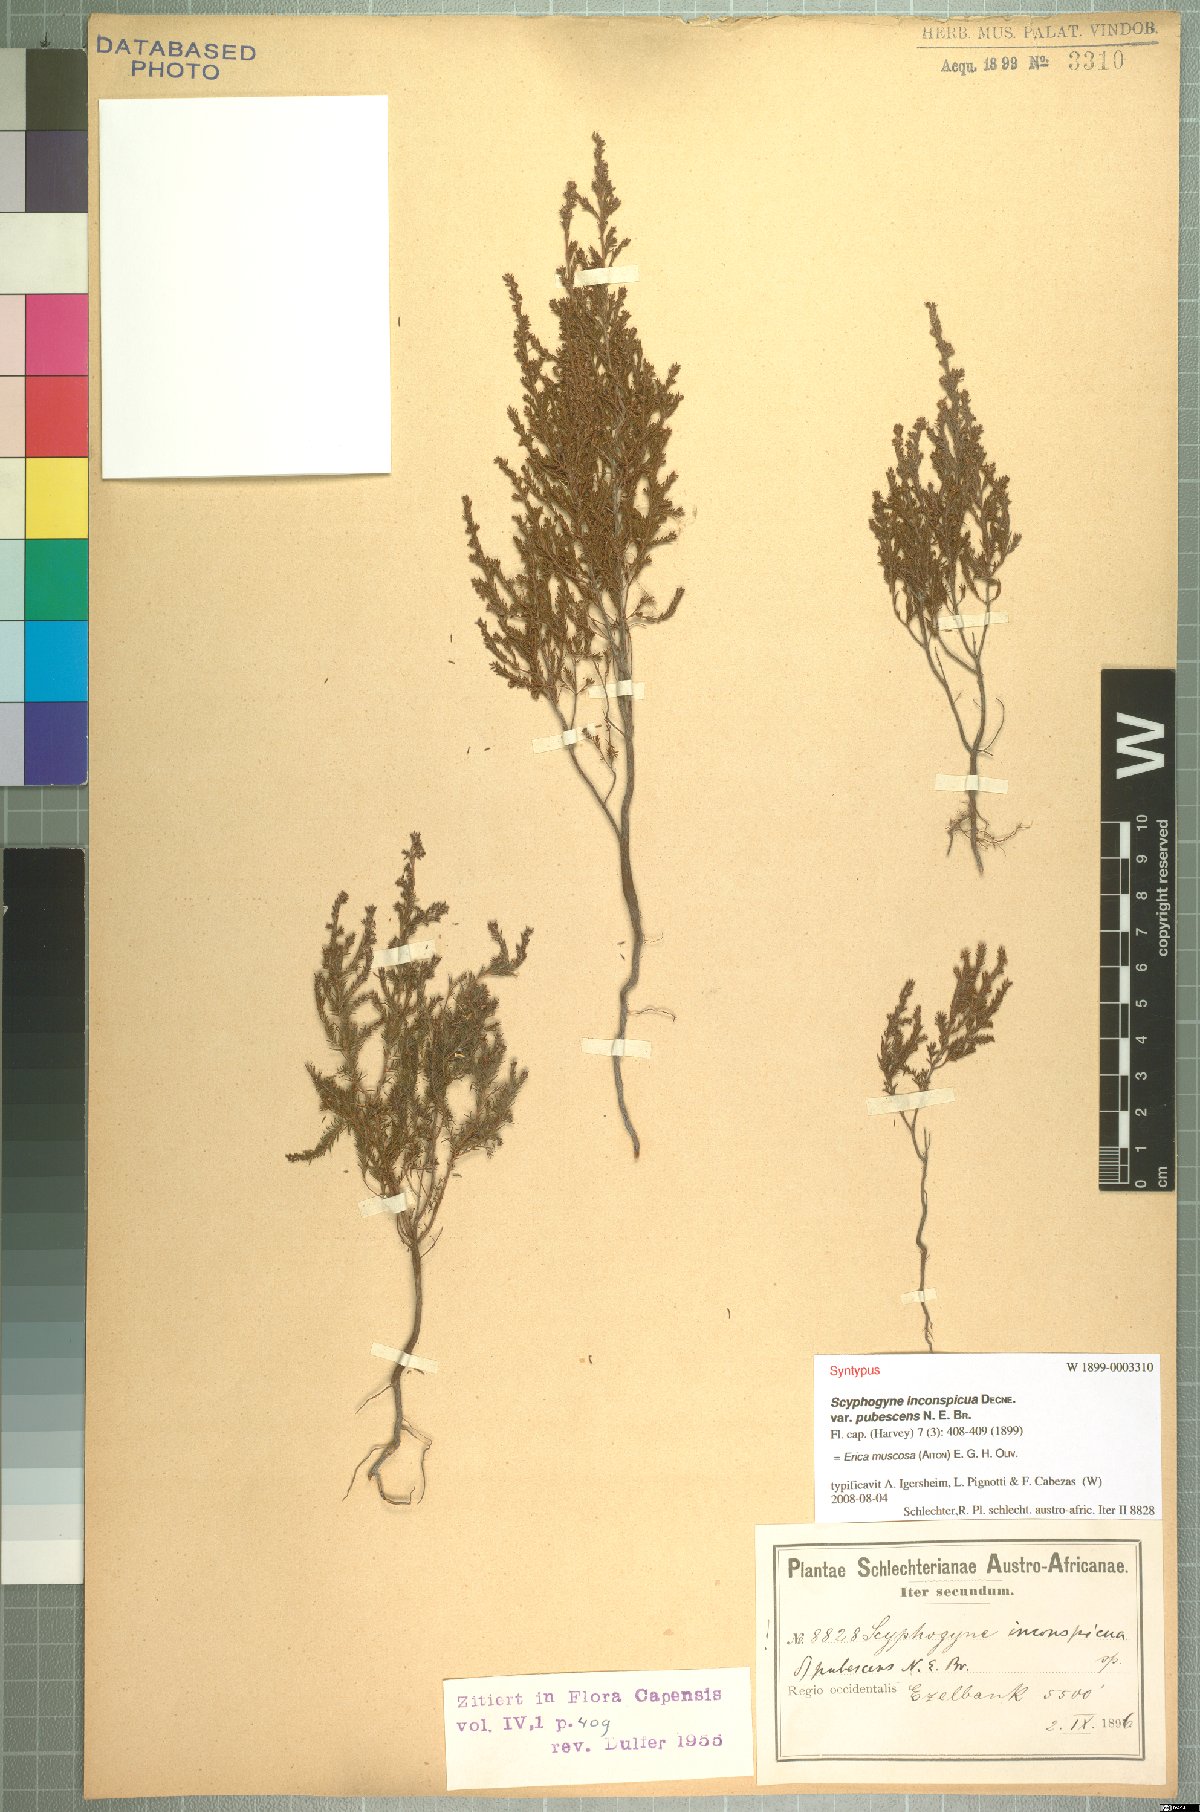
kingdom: Plantae
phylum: Tracheophyta
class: Magnoliopsida
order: Ericales
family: Ericaceae
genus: Erica
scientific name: Erica muscosa
